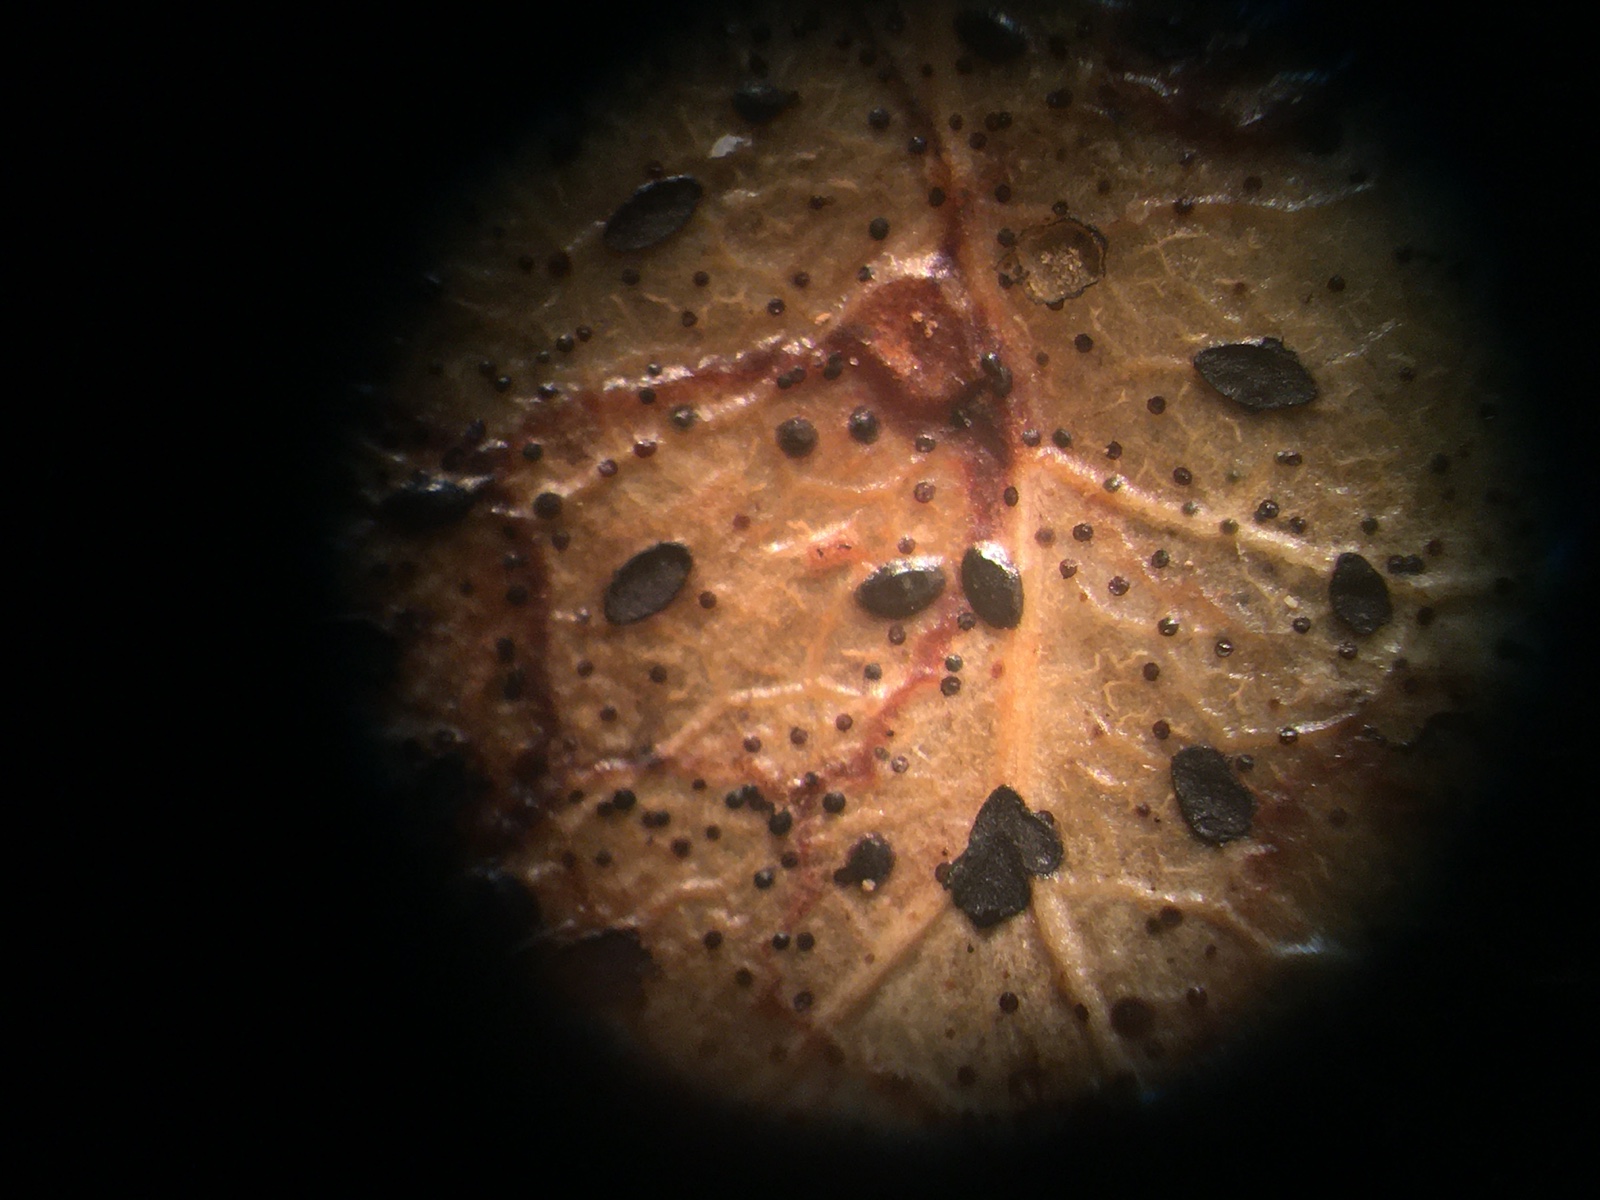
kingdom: Fungi
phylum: Ascomycota
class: Leotiomycetes
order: Rhytismatales
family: Rhytismataceae
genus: Hypoderma
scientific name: Hypoderma hederae
